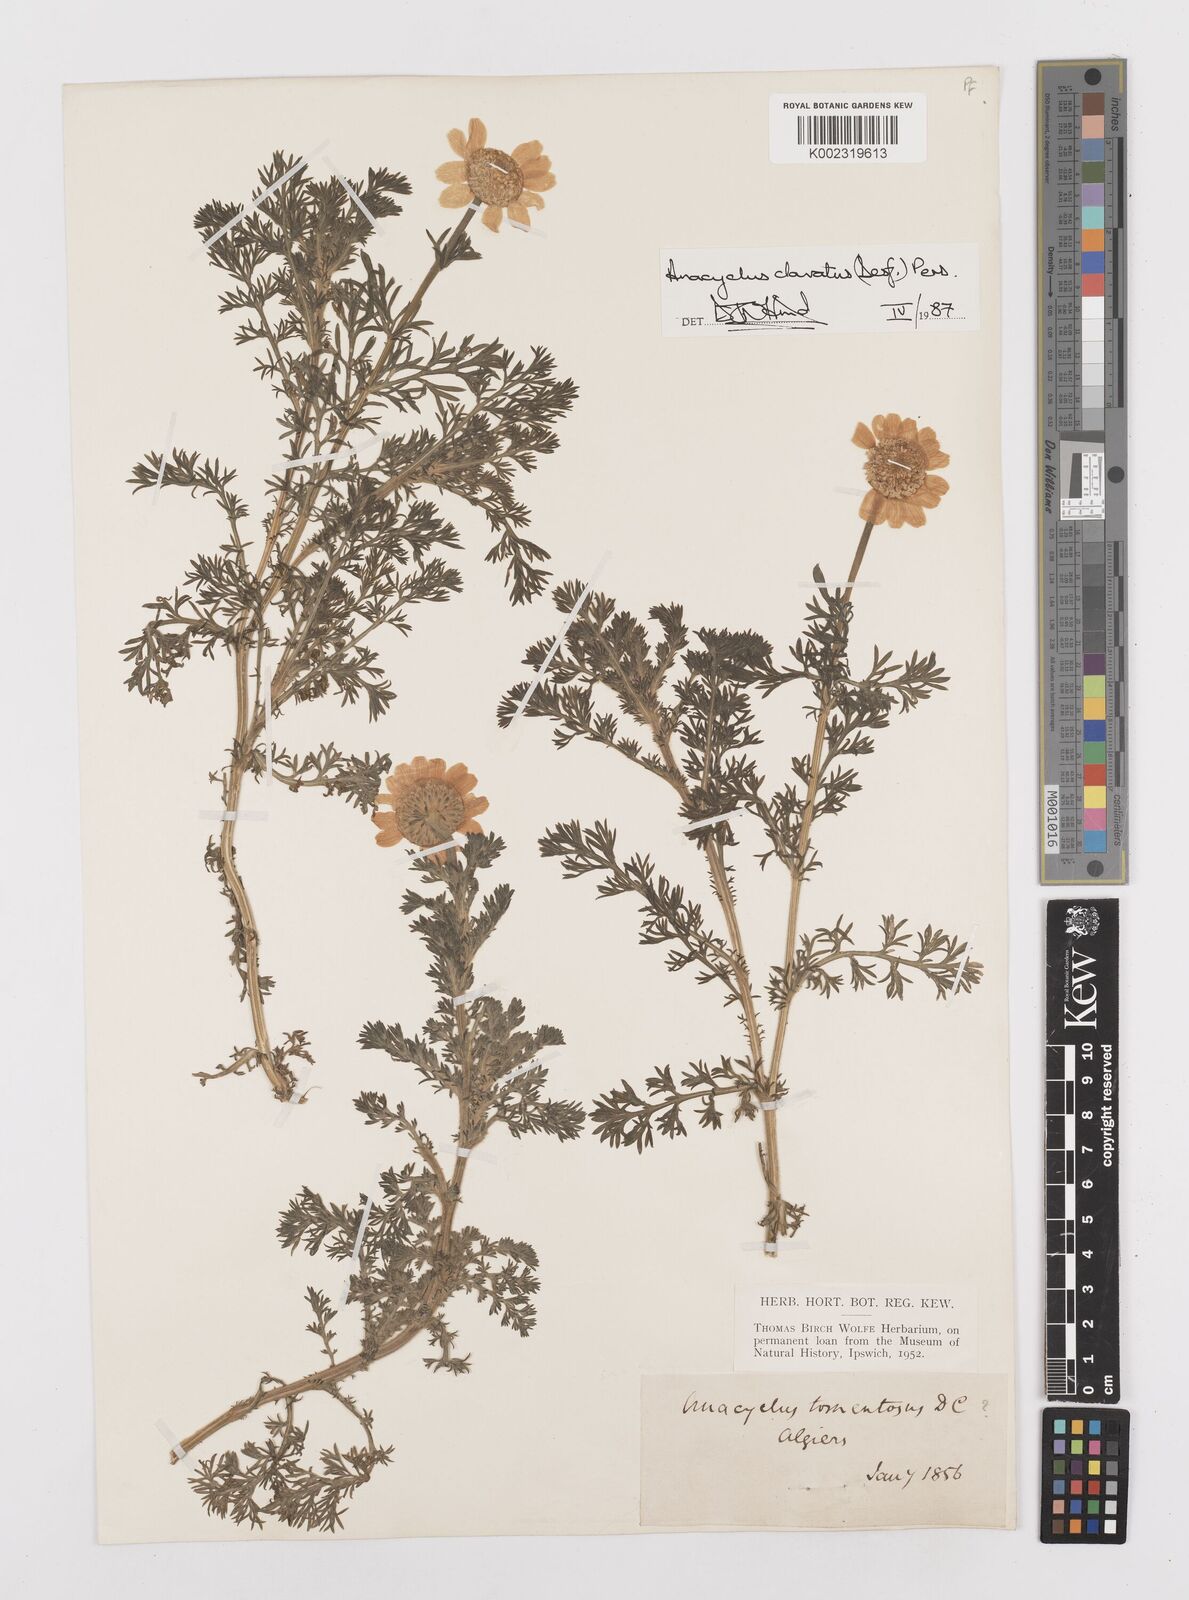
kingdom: Plantae
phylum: Tracheophyta
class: Magnoliopsida
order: Asterales
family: Asteraceae
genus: Anacyclus
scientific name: Anacyclus clavatus
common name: Whitebuttons
